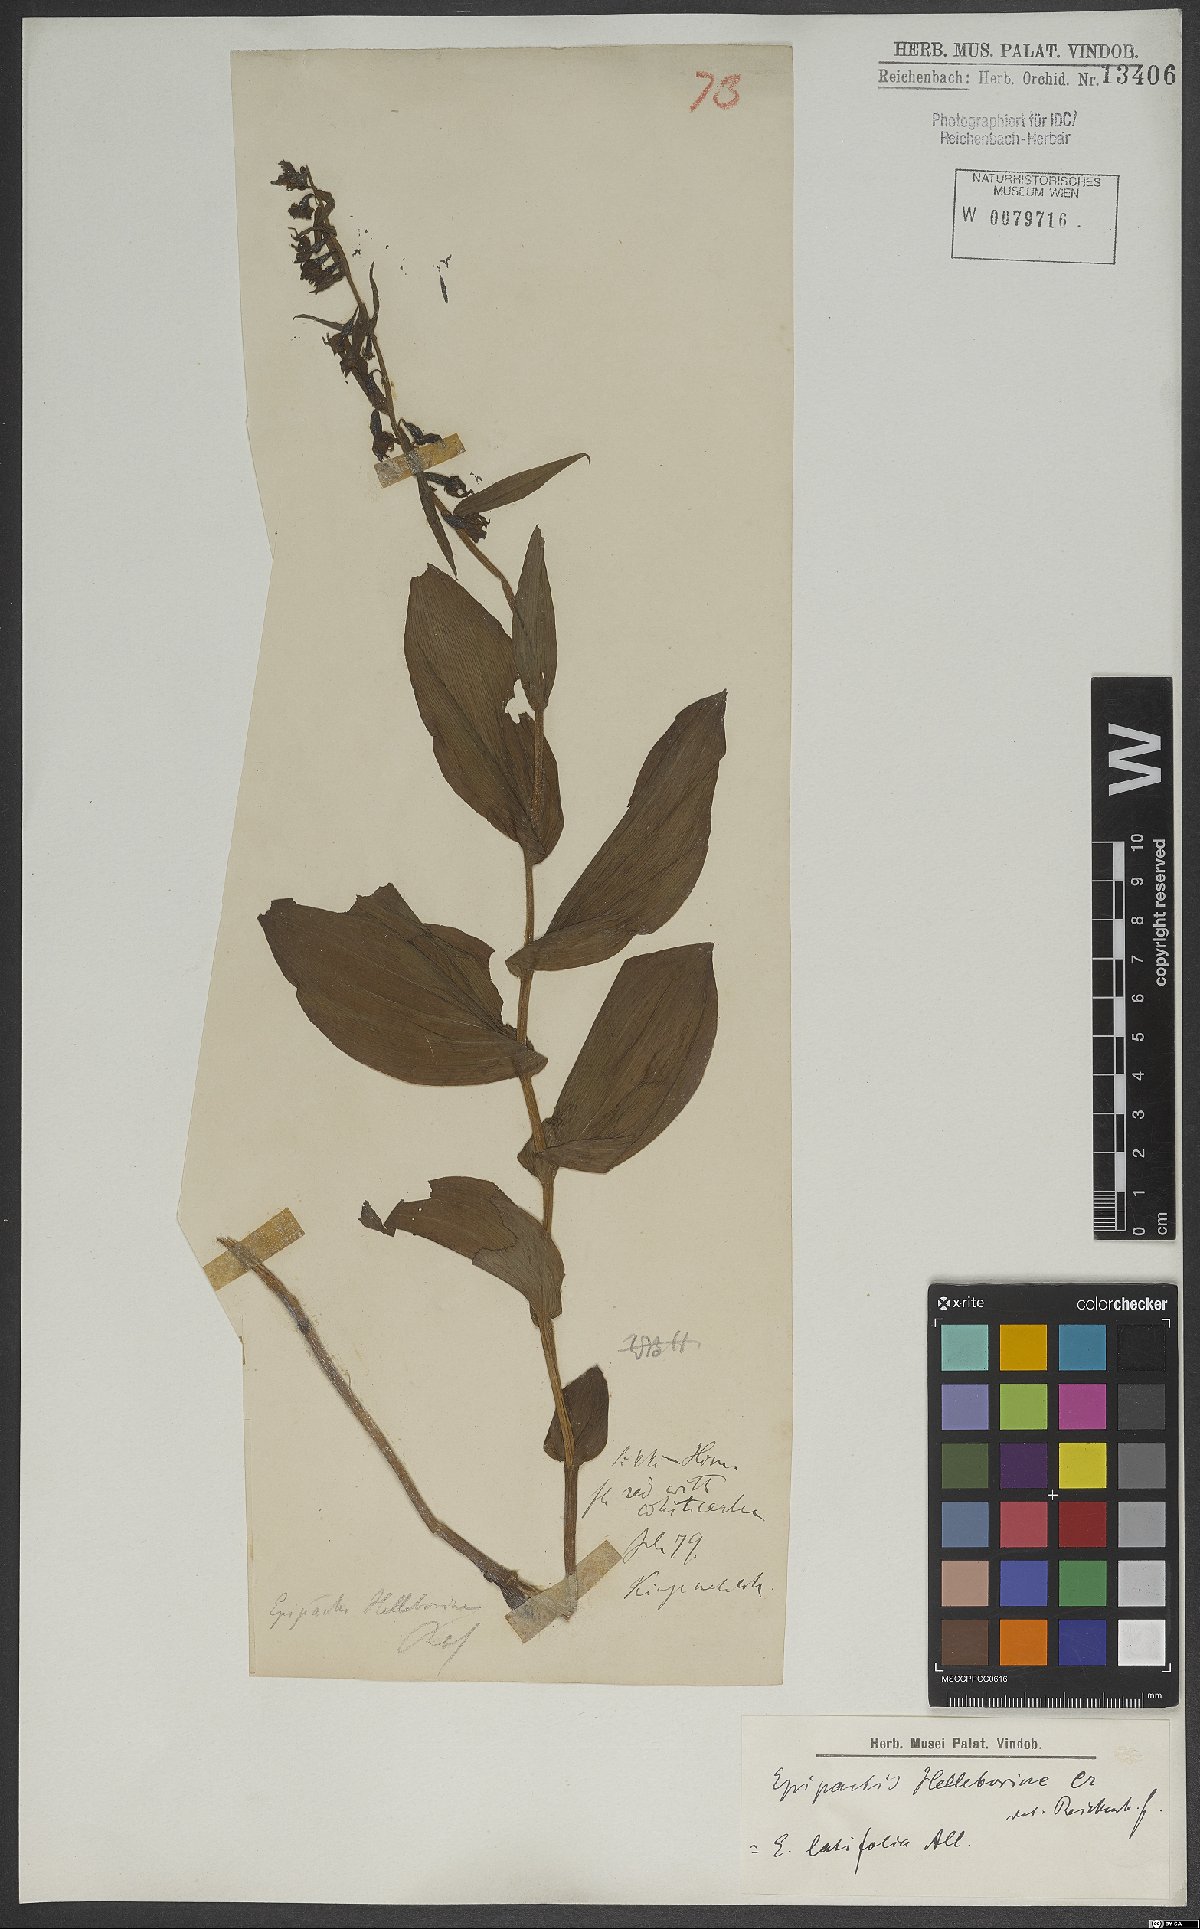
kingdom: Plantae
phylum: Tracheophyta
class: Liliopsida
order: Asparagales
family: Orchidaceae
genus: Epipactis
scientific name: Epipactis helleborine
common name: Broad-leaved helleborine
